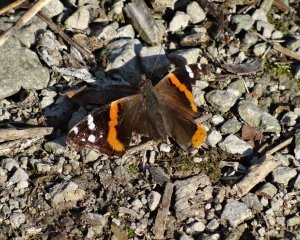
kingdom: Animalia
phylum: Arthropoda
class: Insecta
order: Lepidoptera
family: Nymphalidae
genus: Vanessa
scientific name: Vanessa atalanta
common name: Red Admiral
